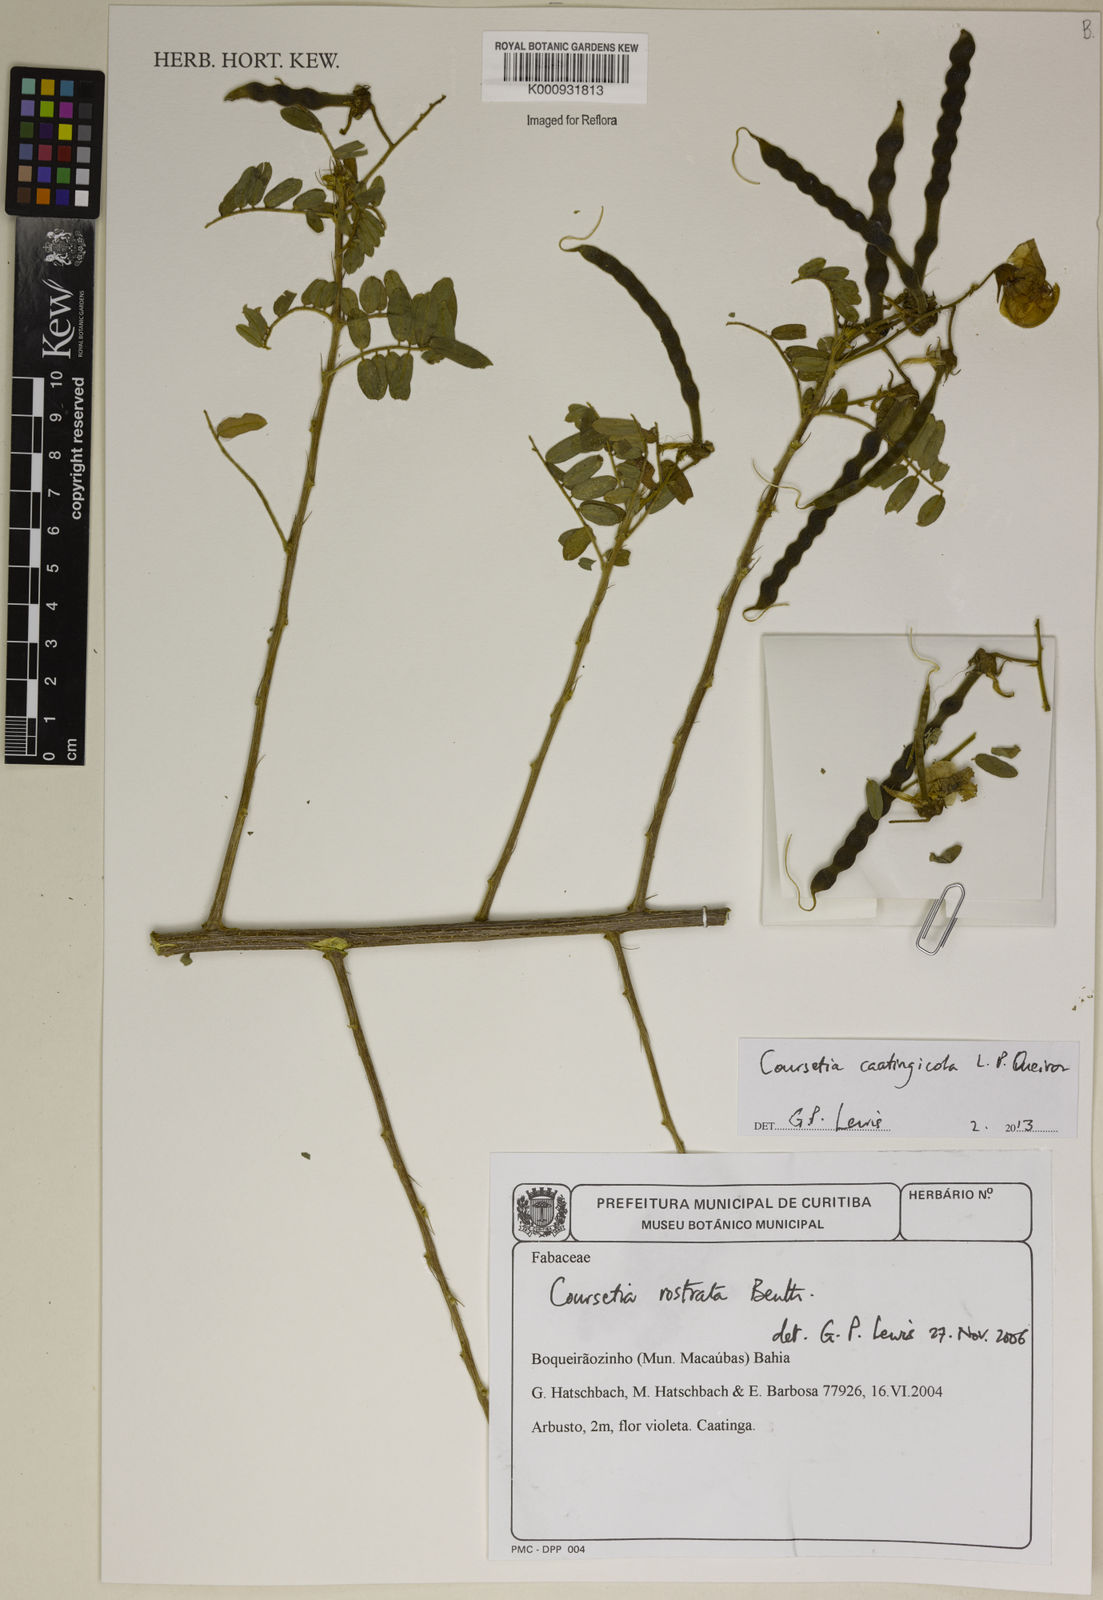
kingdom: Plantae
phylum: Tracheophyta
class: Magnoliopsida
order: Fabales
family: Fabaceae
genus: Coursetia
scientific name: Coursetia caatingicola
